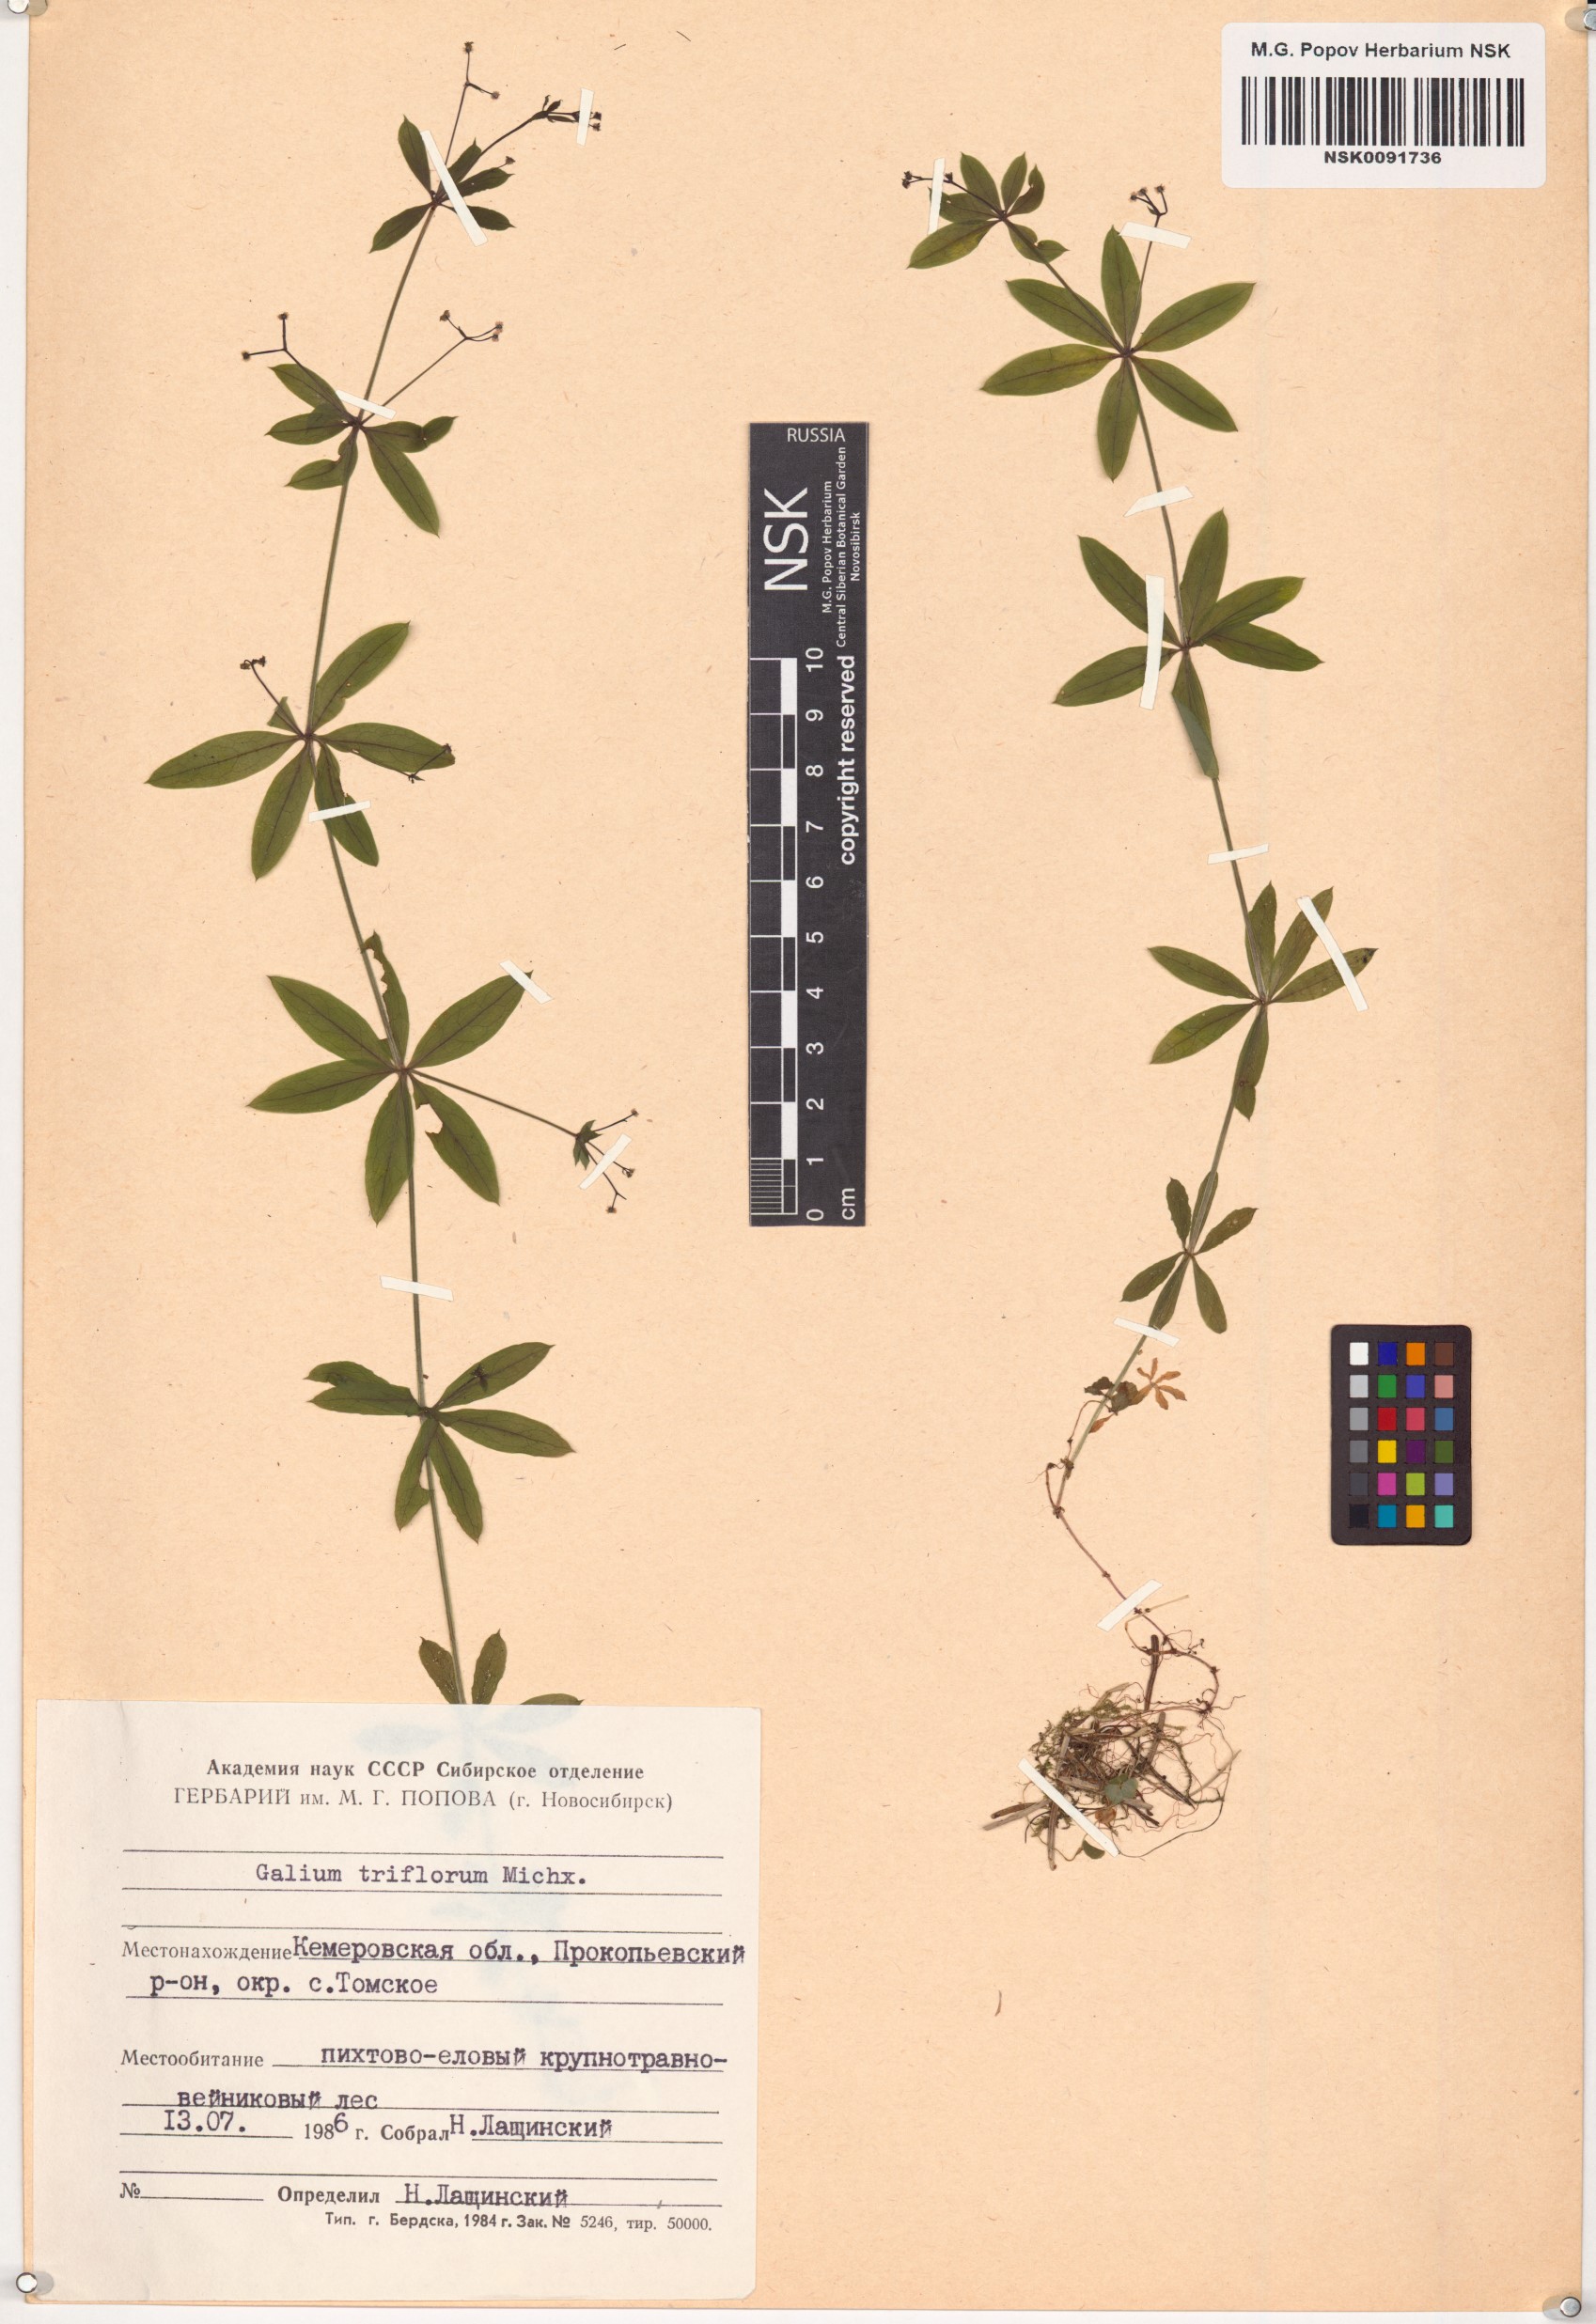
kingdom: Plantae
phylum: Tracheophyta
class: Magnoliopsida
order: Gentianales
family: Rubiaceae
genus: Galium
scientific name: Galium triflorum
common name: Fragrant bedstraw
